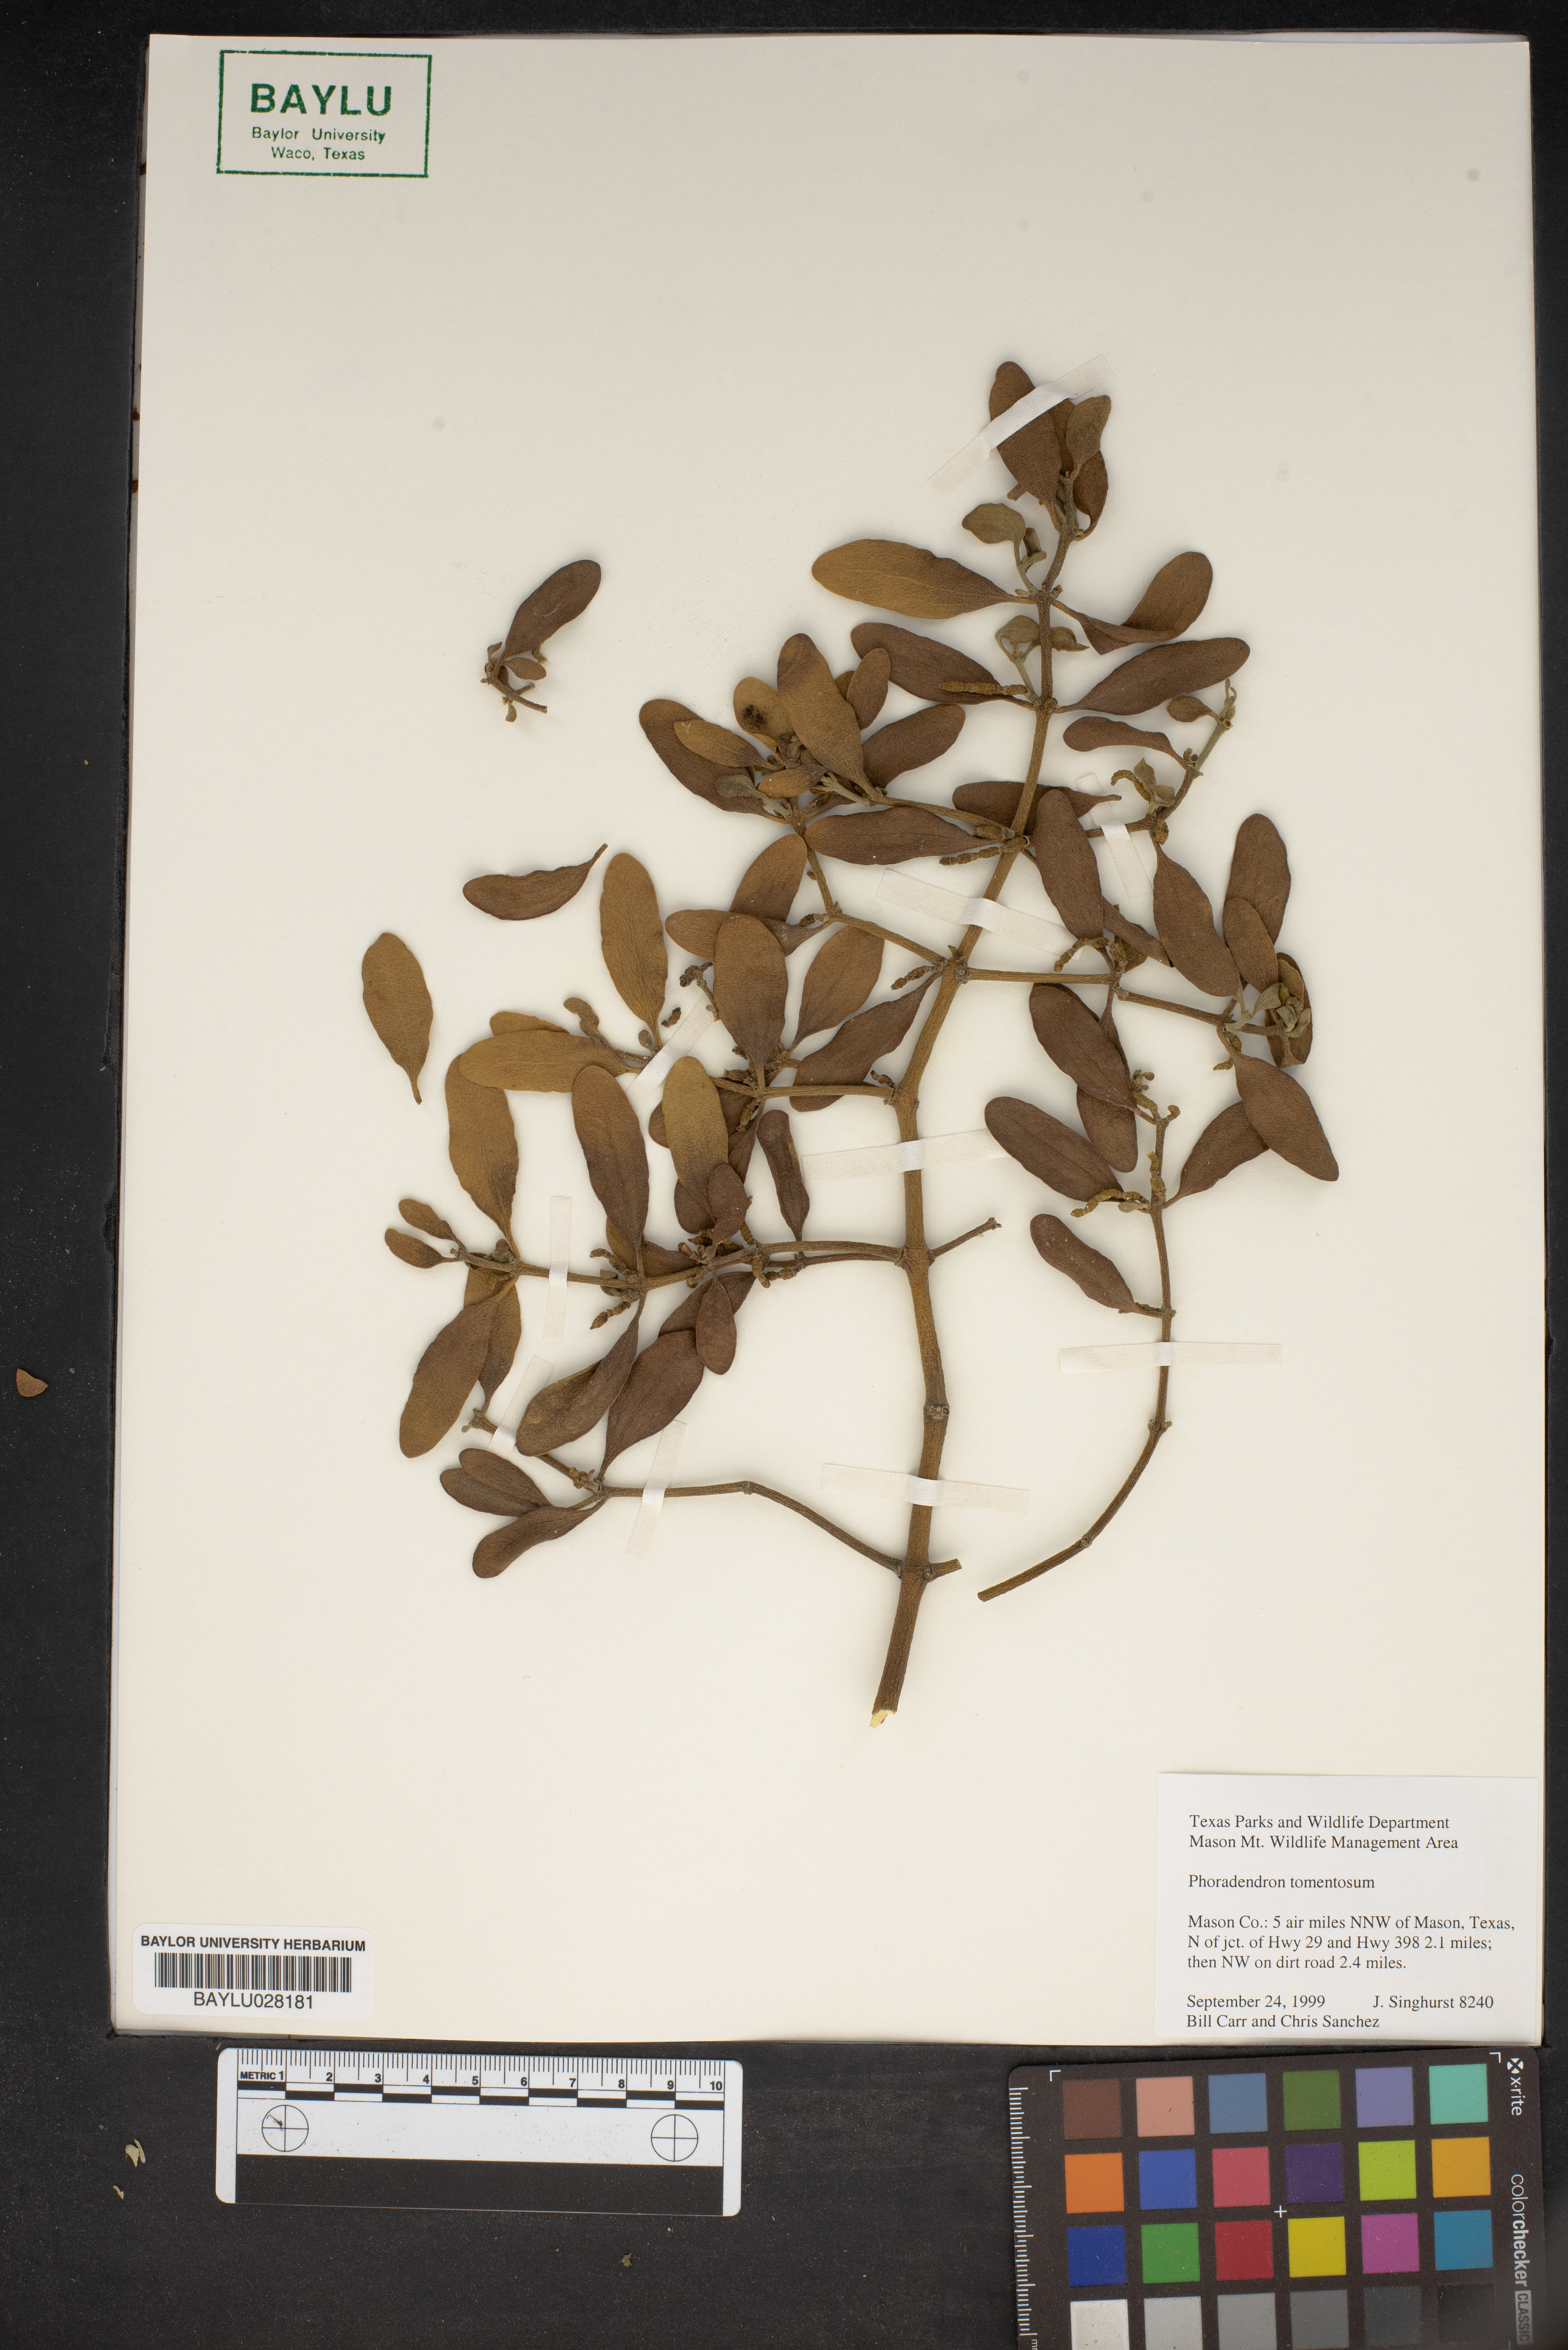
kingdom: Plantae
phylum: Tracheophyta
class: Magnoliopsida
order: Santalales
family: Viscaceae
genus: Phoradendron
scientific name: Phoradendron leucarpum
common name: Pacific mistletoe
